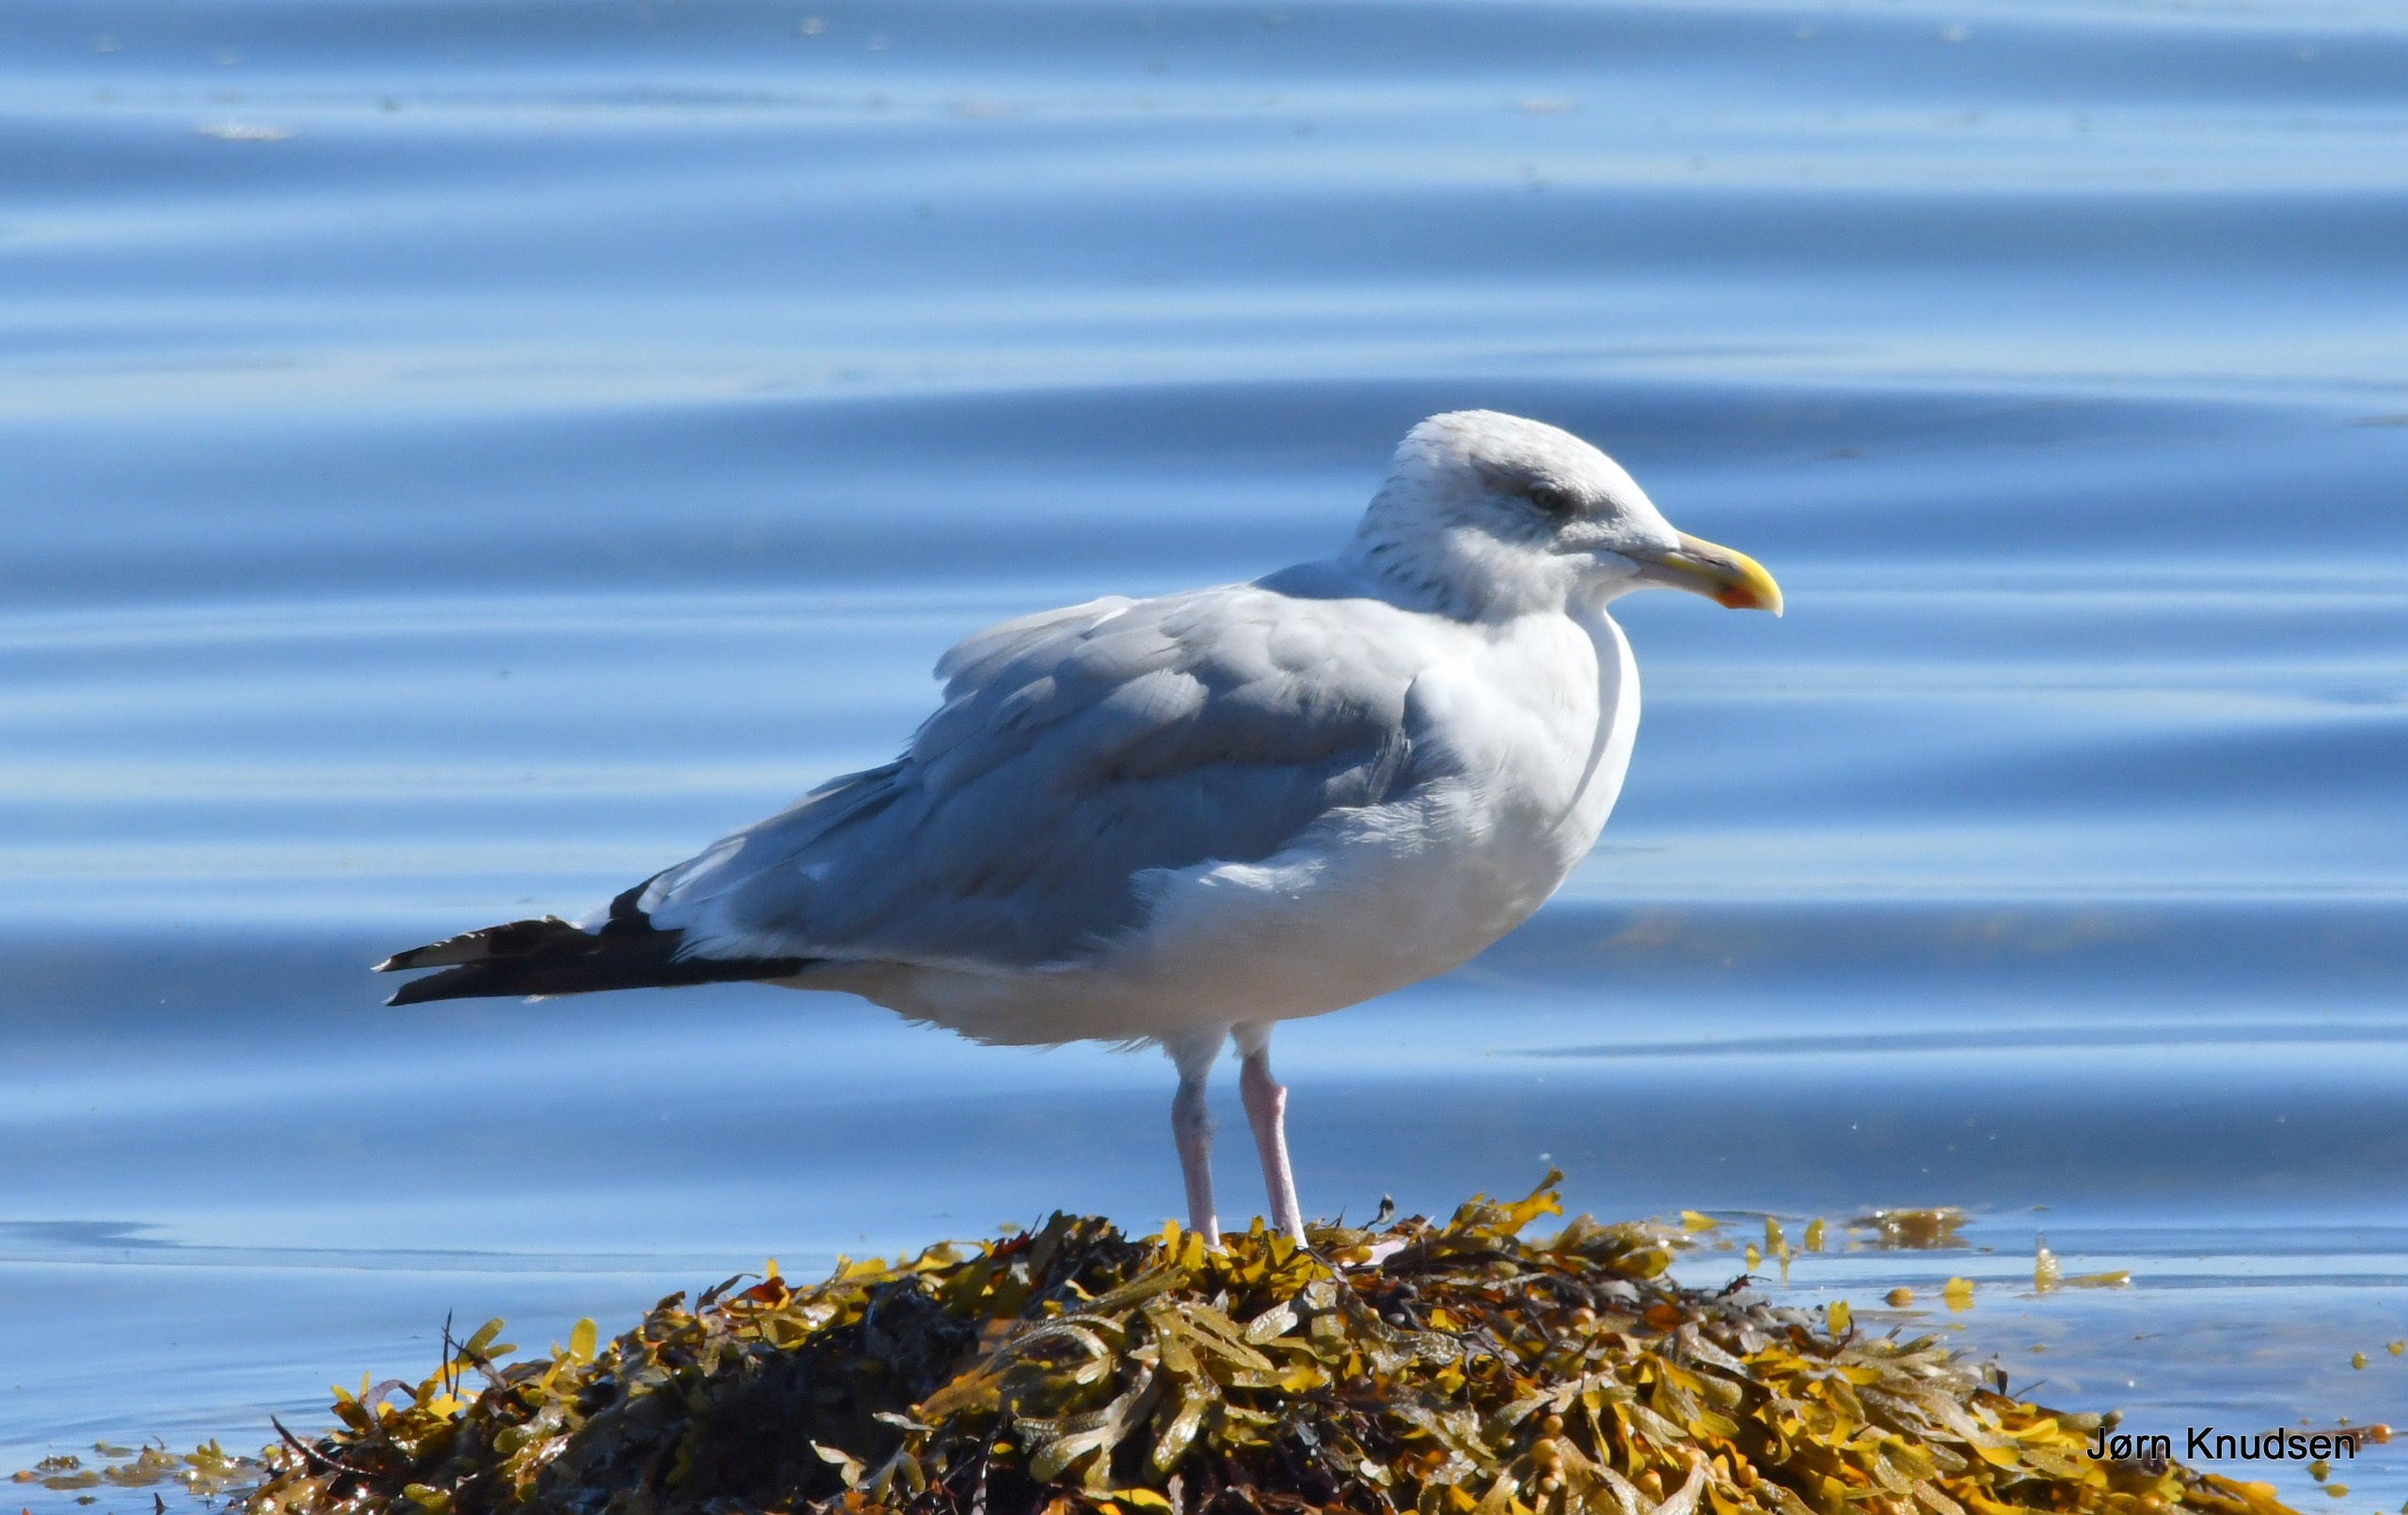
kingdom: Animalia
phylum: Chordata
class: Aves
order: Charadriiformes
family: Laridae
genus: Larus
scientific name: Larus argentatus
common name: Sølvmåge
